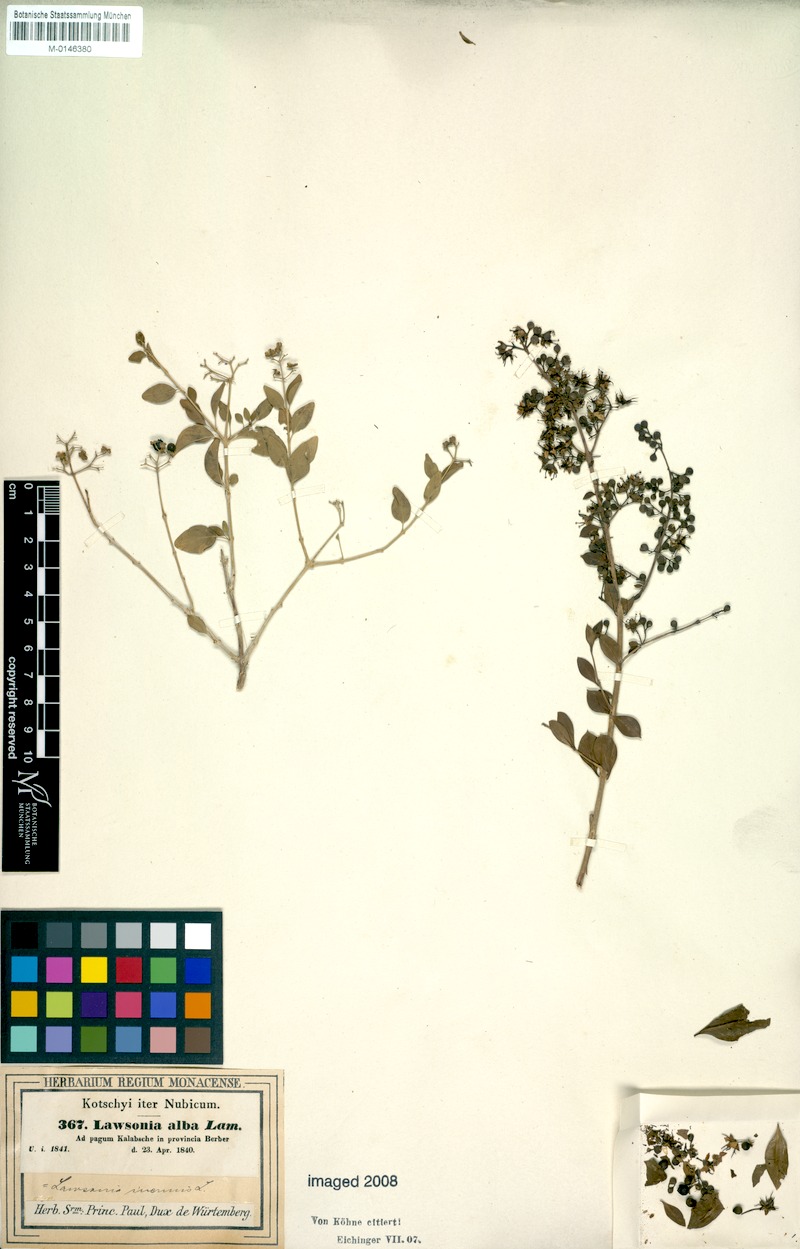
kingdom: Plantae
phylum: Tracheophyta
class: Magnoliopsida
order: Myrtales
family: Lythraceae
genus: Lawsonia
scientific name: Lawsonia inermis
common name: Henna
